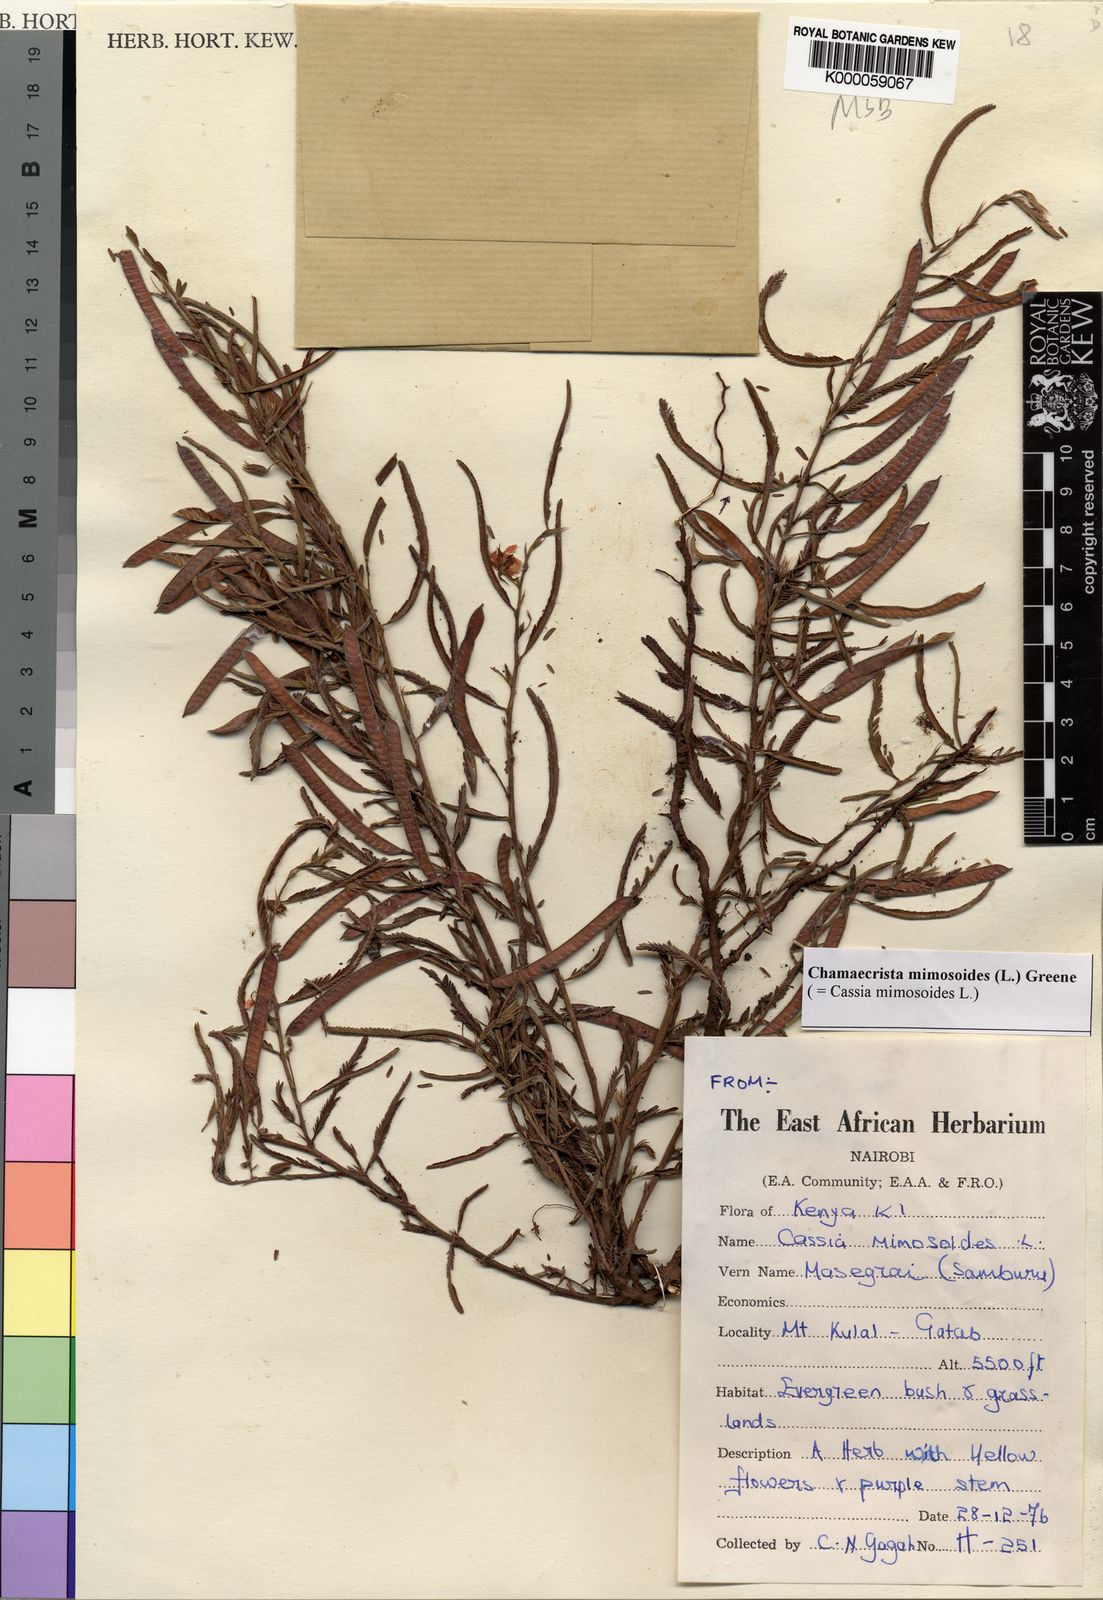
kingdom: Plantae
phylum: Tracheophyta
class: Magnoliopsida
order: Fabales
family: Fabaceae
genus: Chamaecrista
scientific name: Chamaecrista mimosoides
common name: Fish-bone cassia
